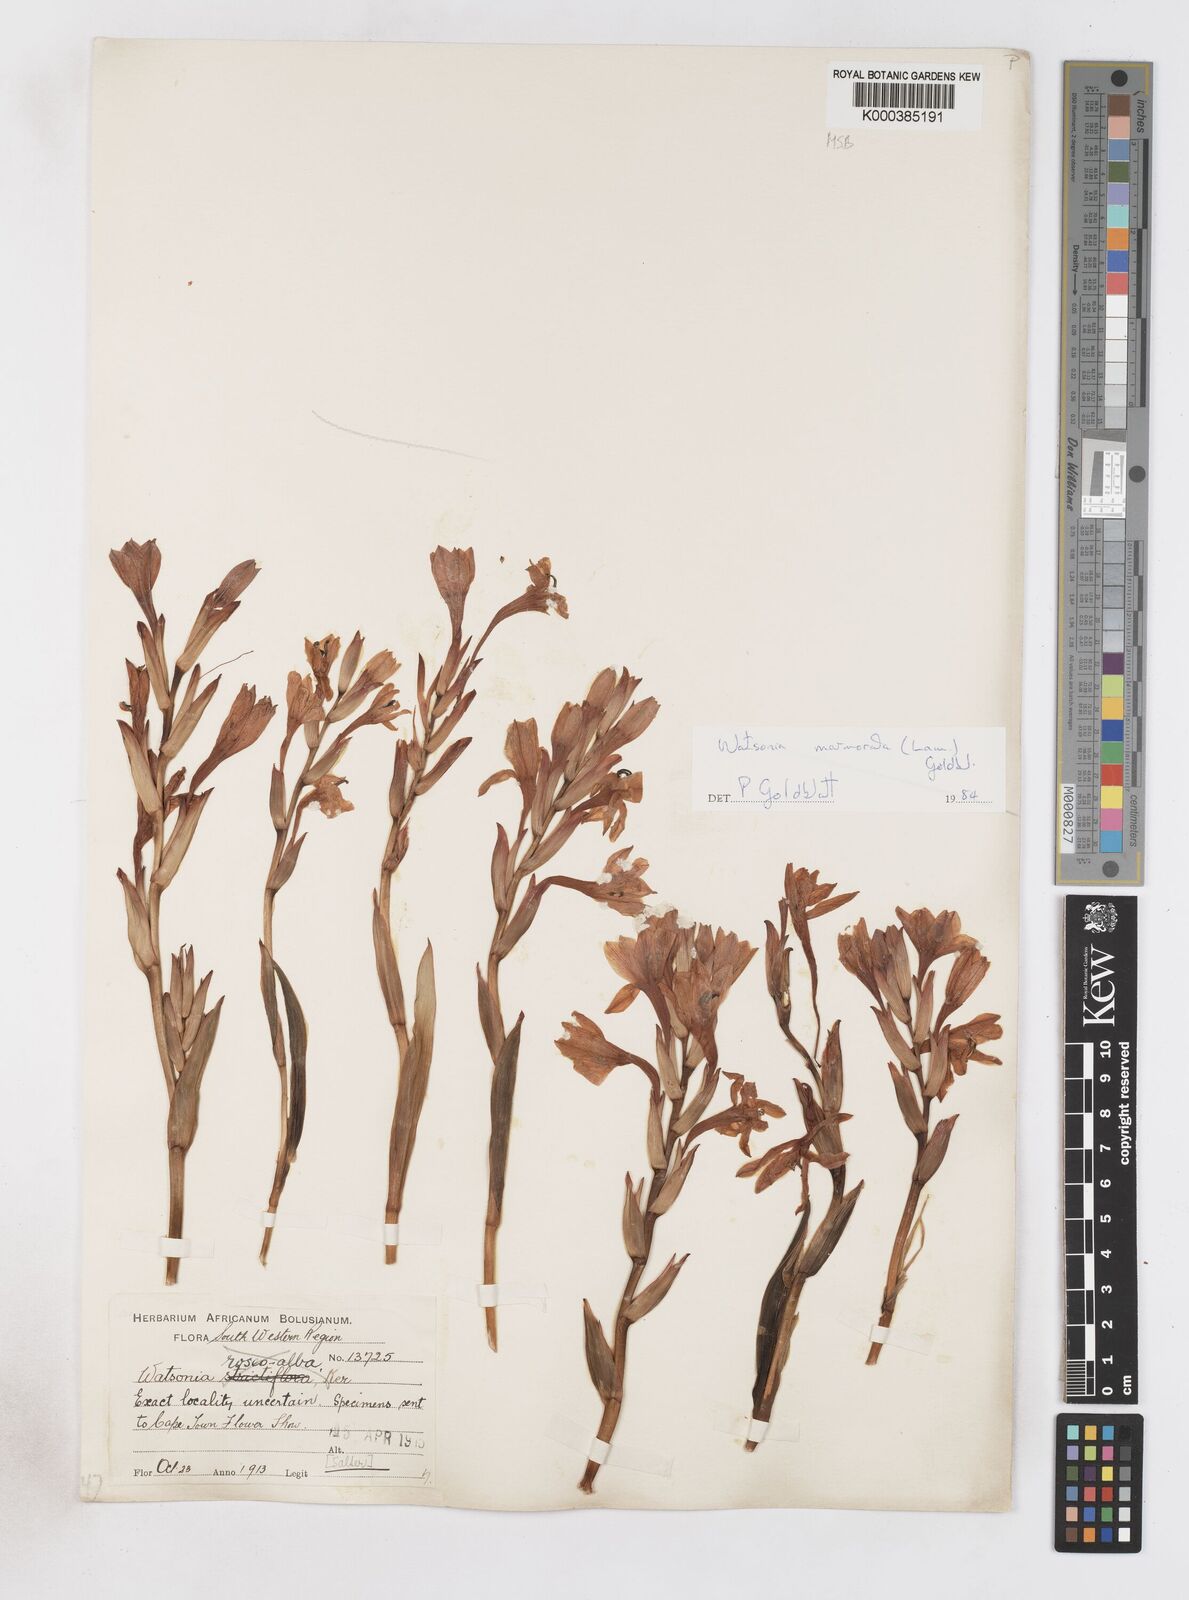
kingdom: Plantae
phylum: Tracheophyta
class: Liliopsida
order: Asparagales
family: Iridaceae
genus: Watsonia
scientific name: Watsonia humilis
